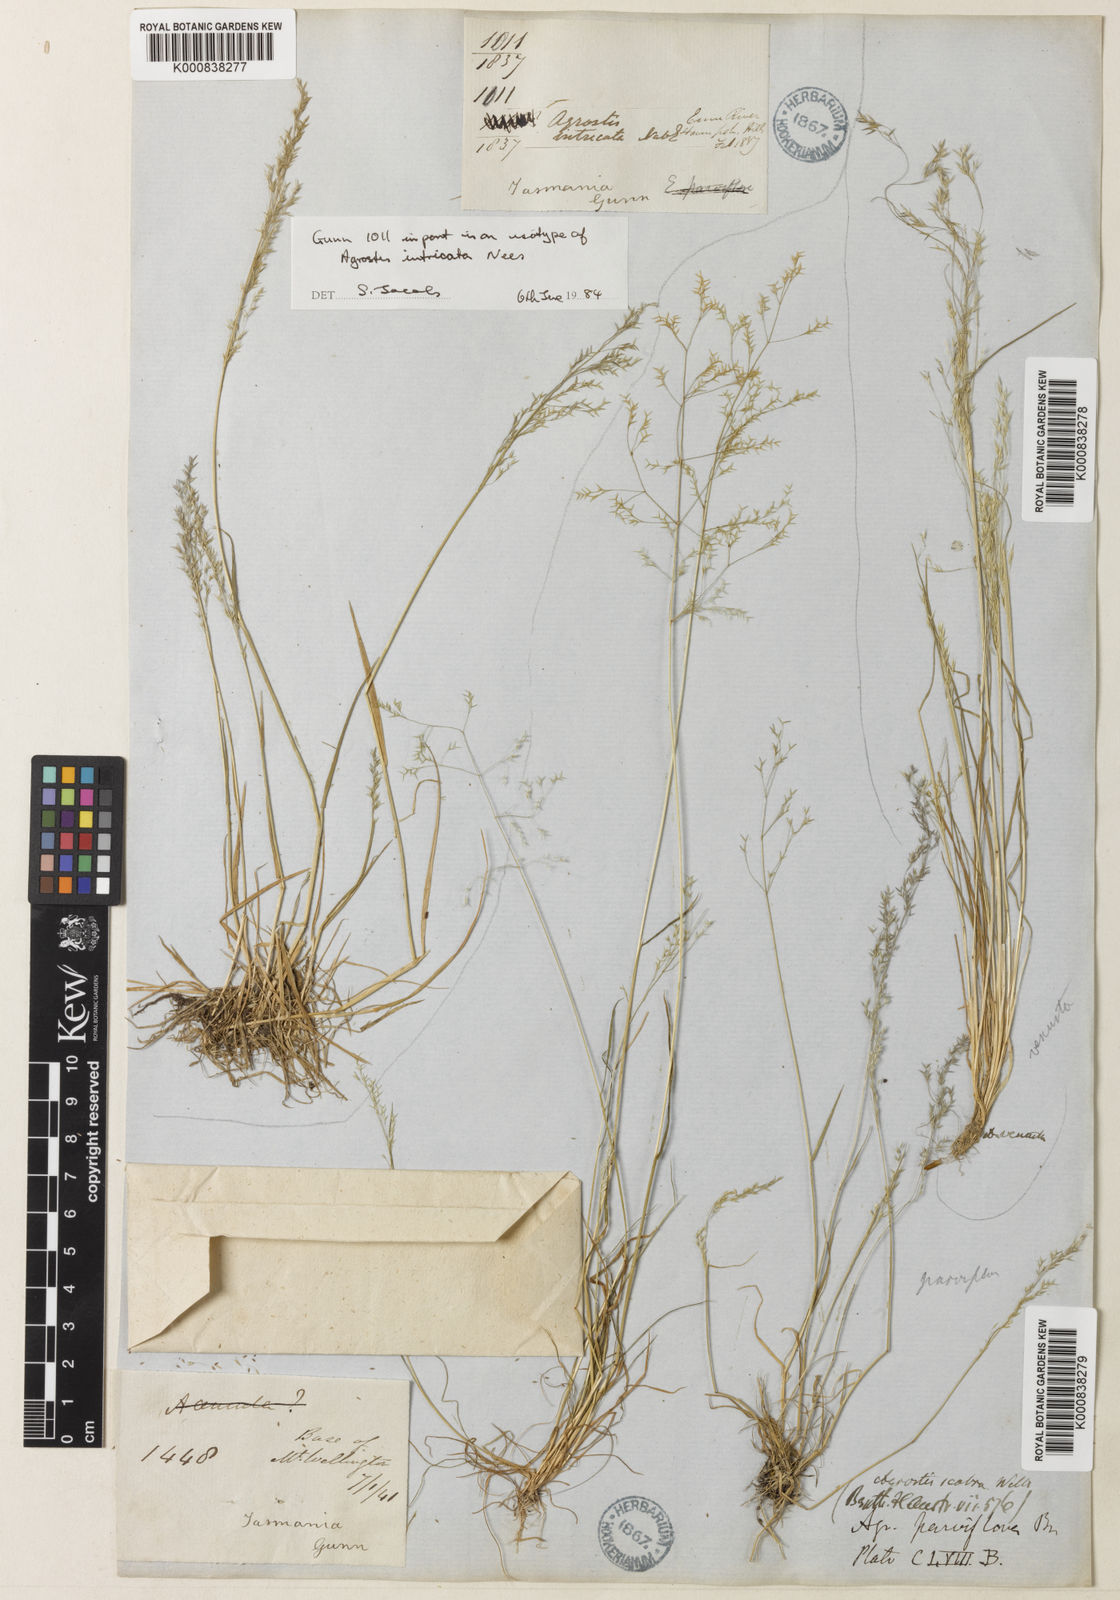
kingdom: Plantae
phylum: Tracheophyta
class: Liliopsida
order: Poales
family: Poaceae
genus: Agrostis
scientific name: Agrostis parviflora
